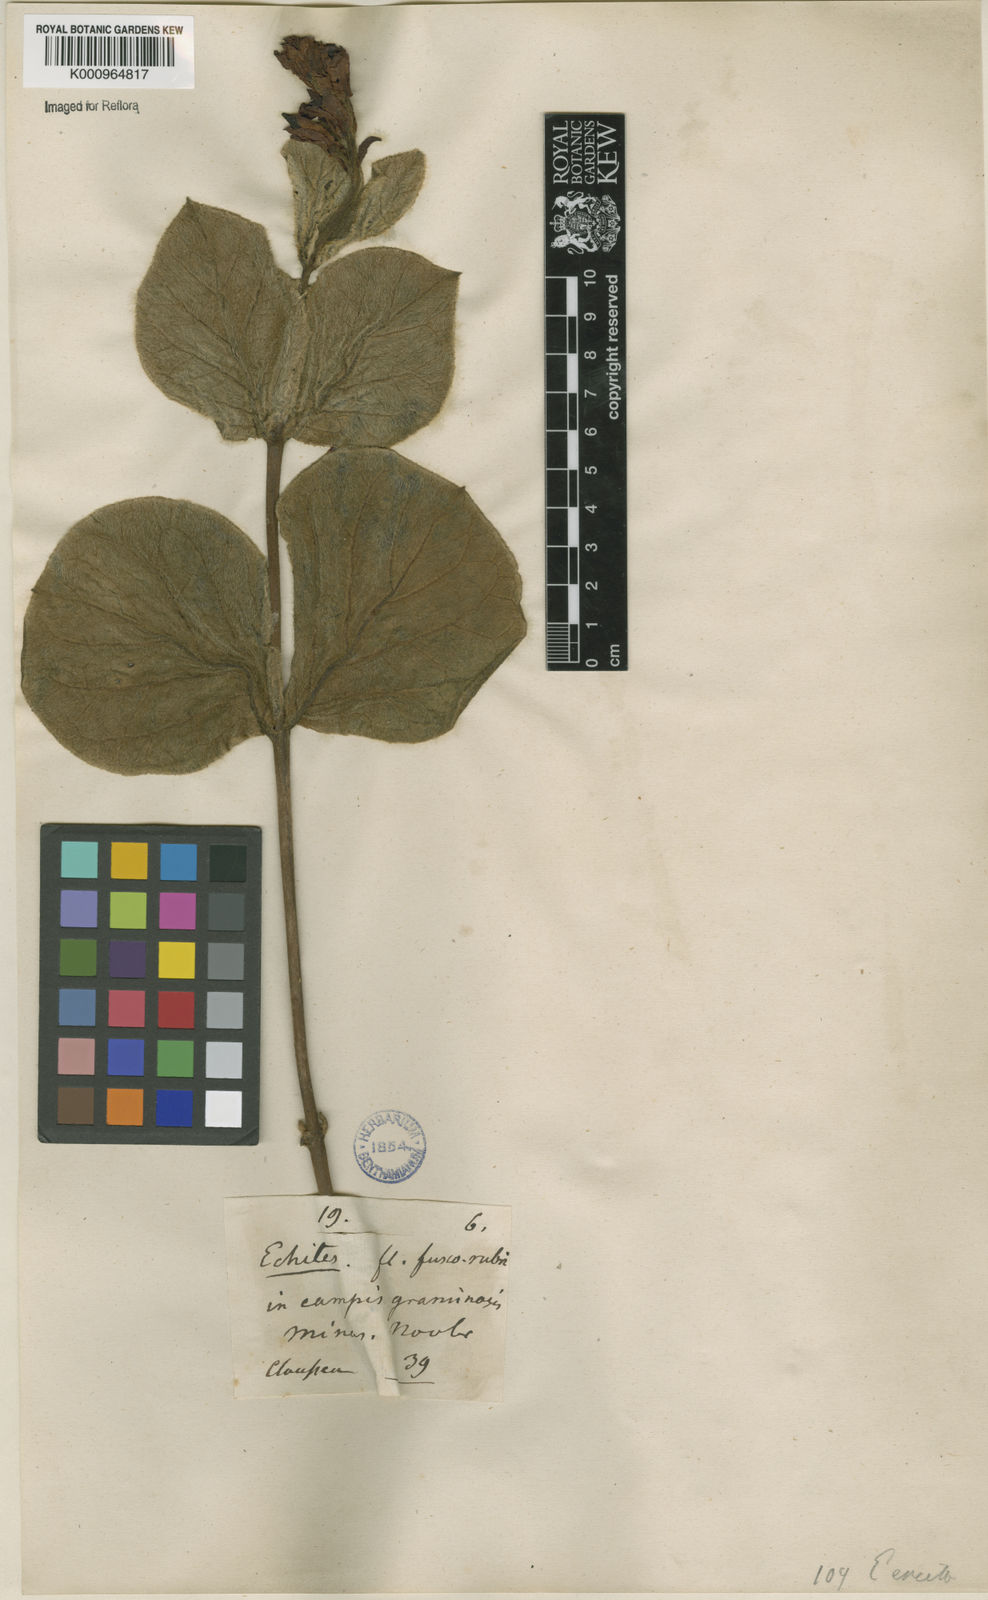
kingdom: Plantae
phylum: Tracheophyta
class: Magnoliopsida
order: Gentianales
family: Apocynaceae
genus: Rhodocalyx
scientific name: Rhodocalyx
